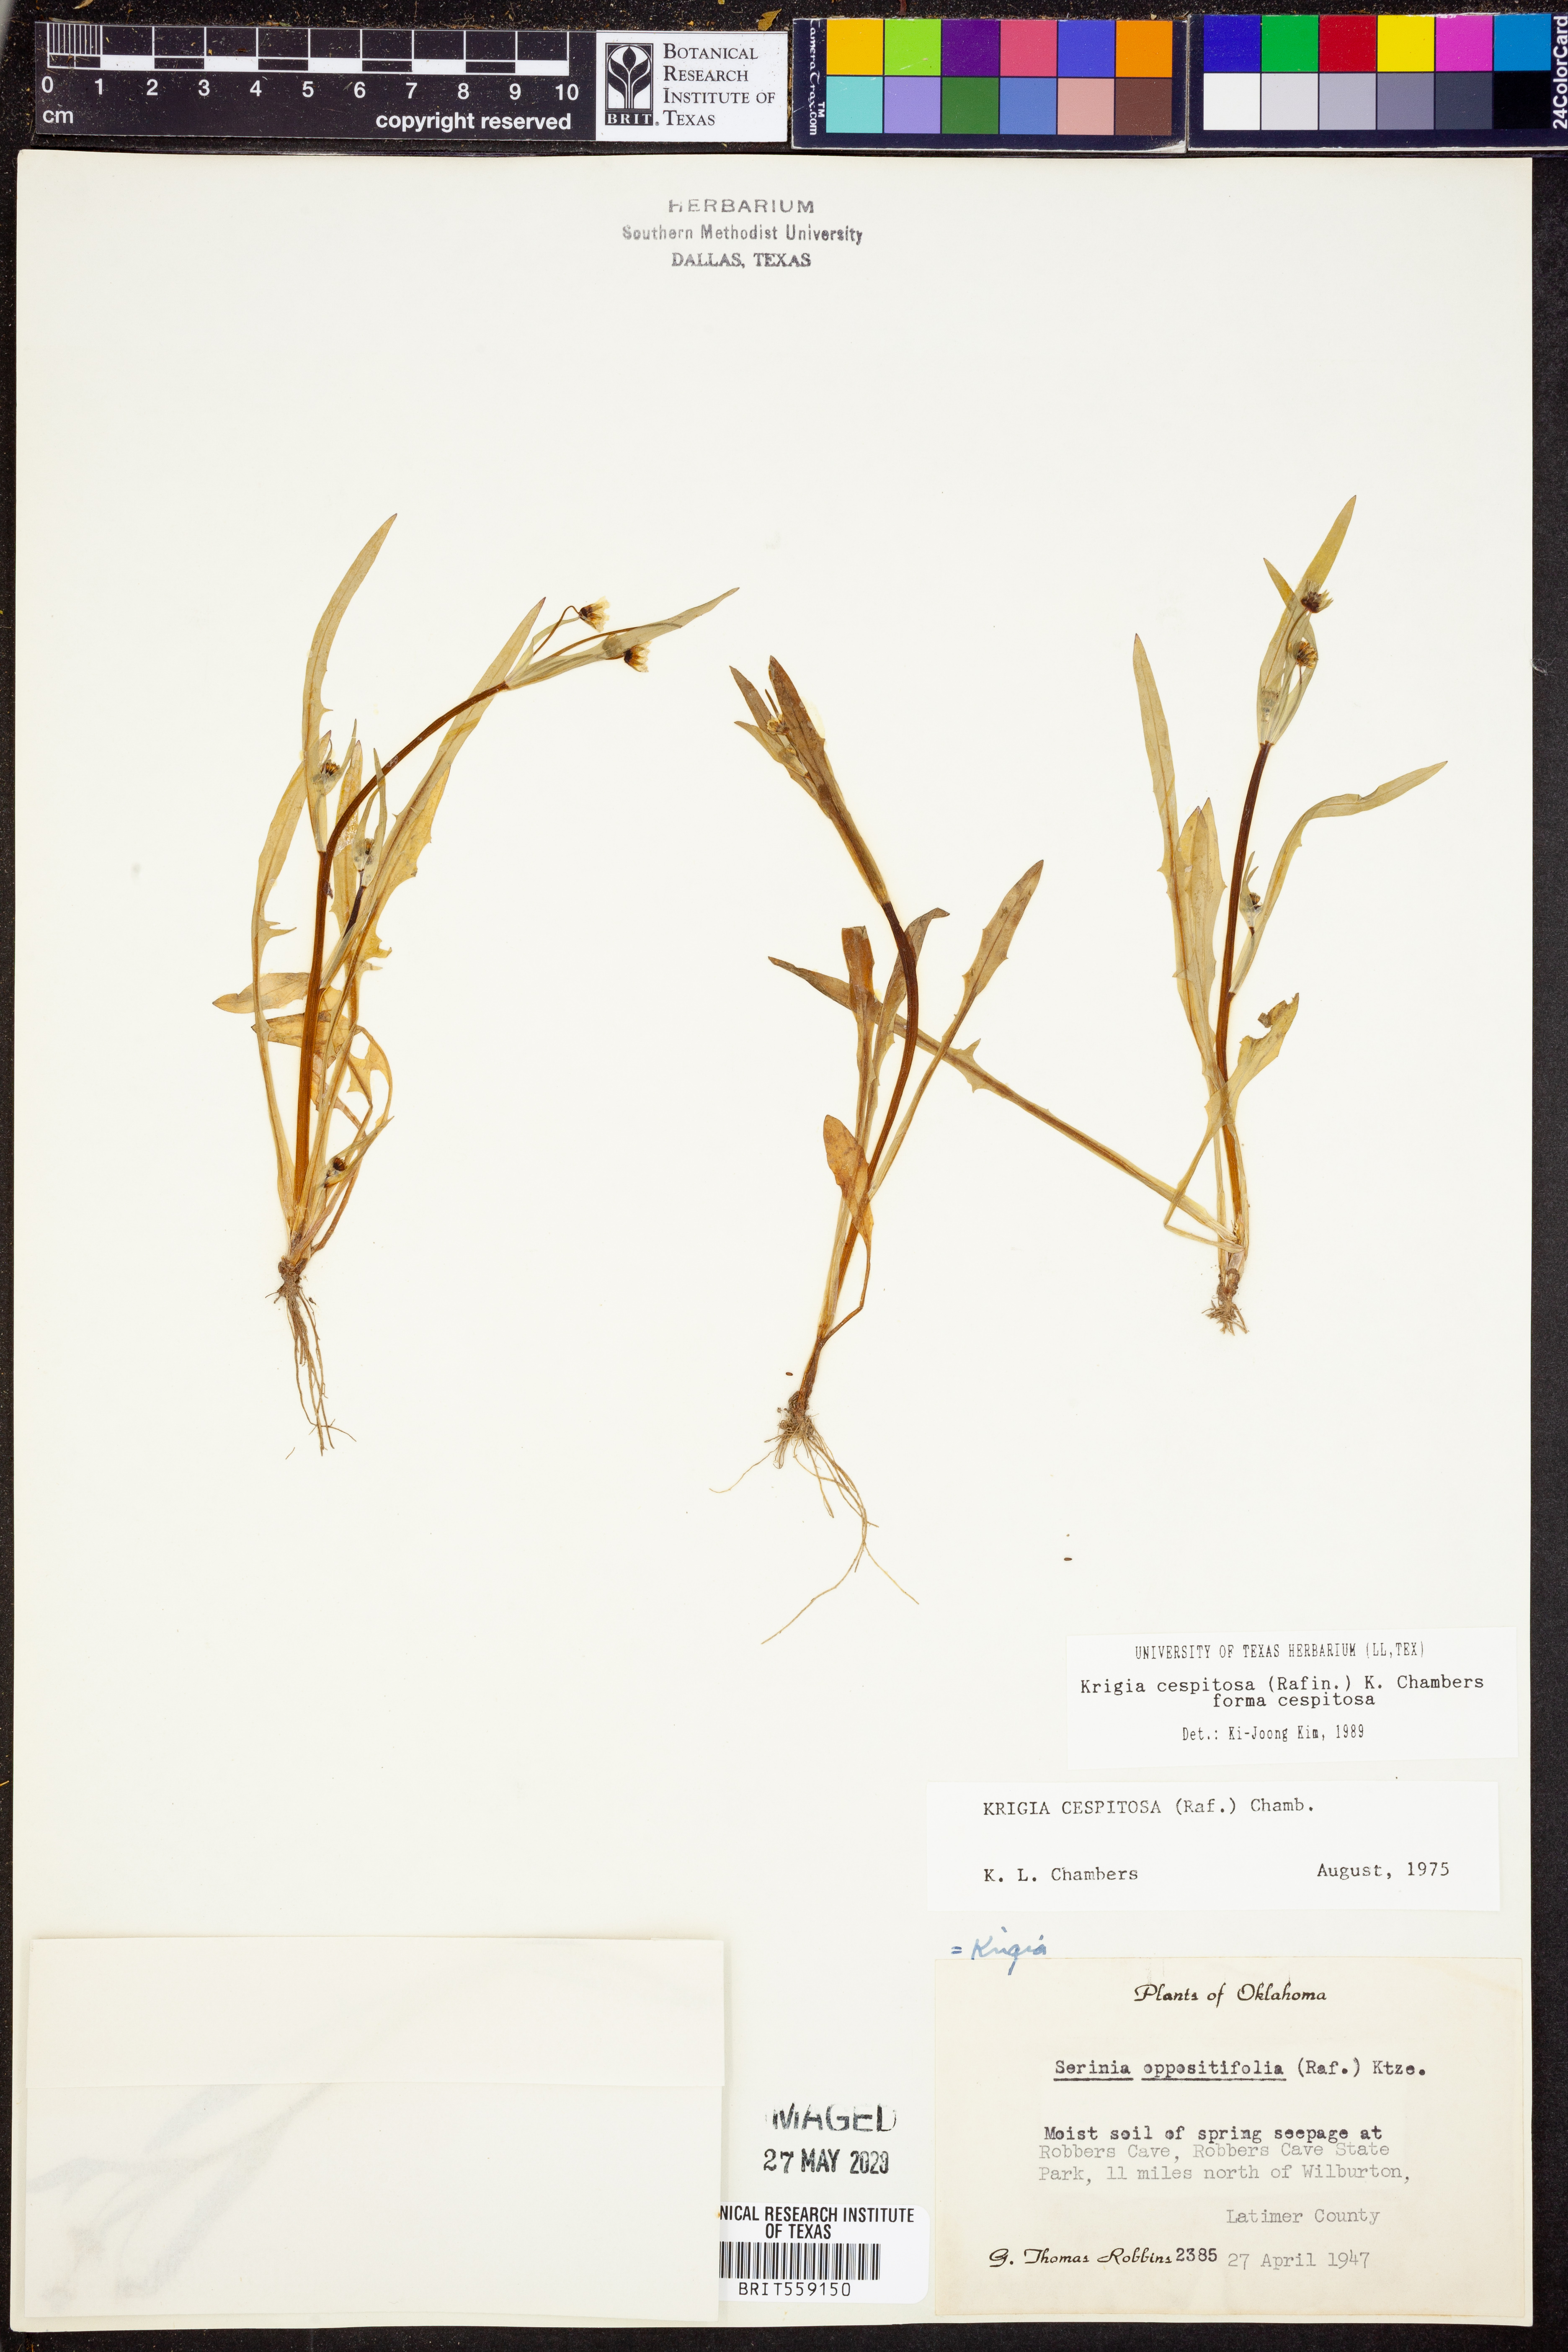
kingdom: Plantae
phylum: Tracheophyta
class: Magnoliopsida
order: Asterales
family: Asteraceae
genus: Krigia
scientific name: Krigia cespitosa
